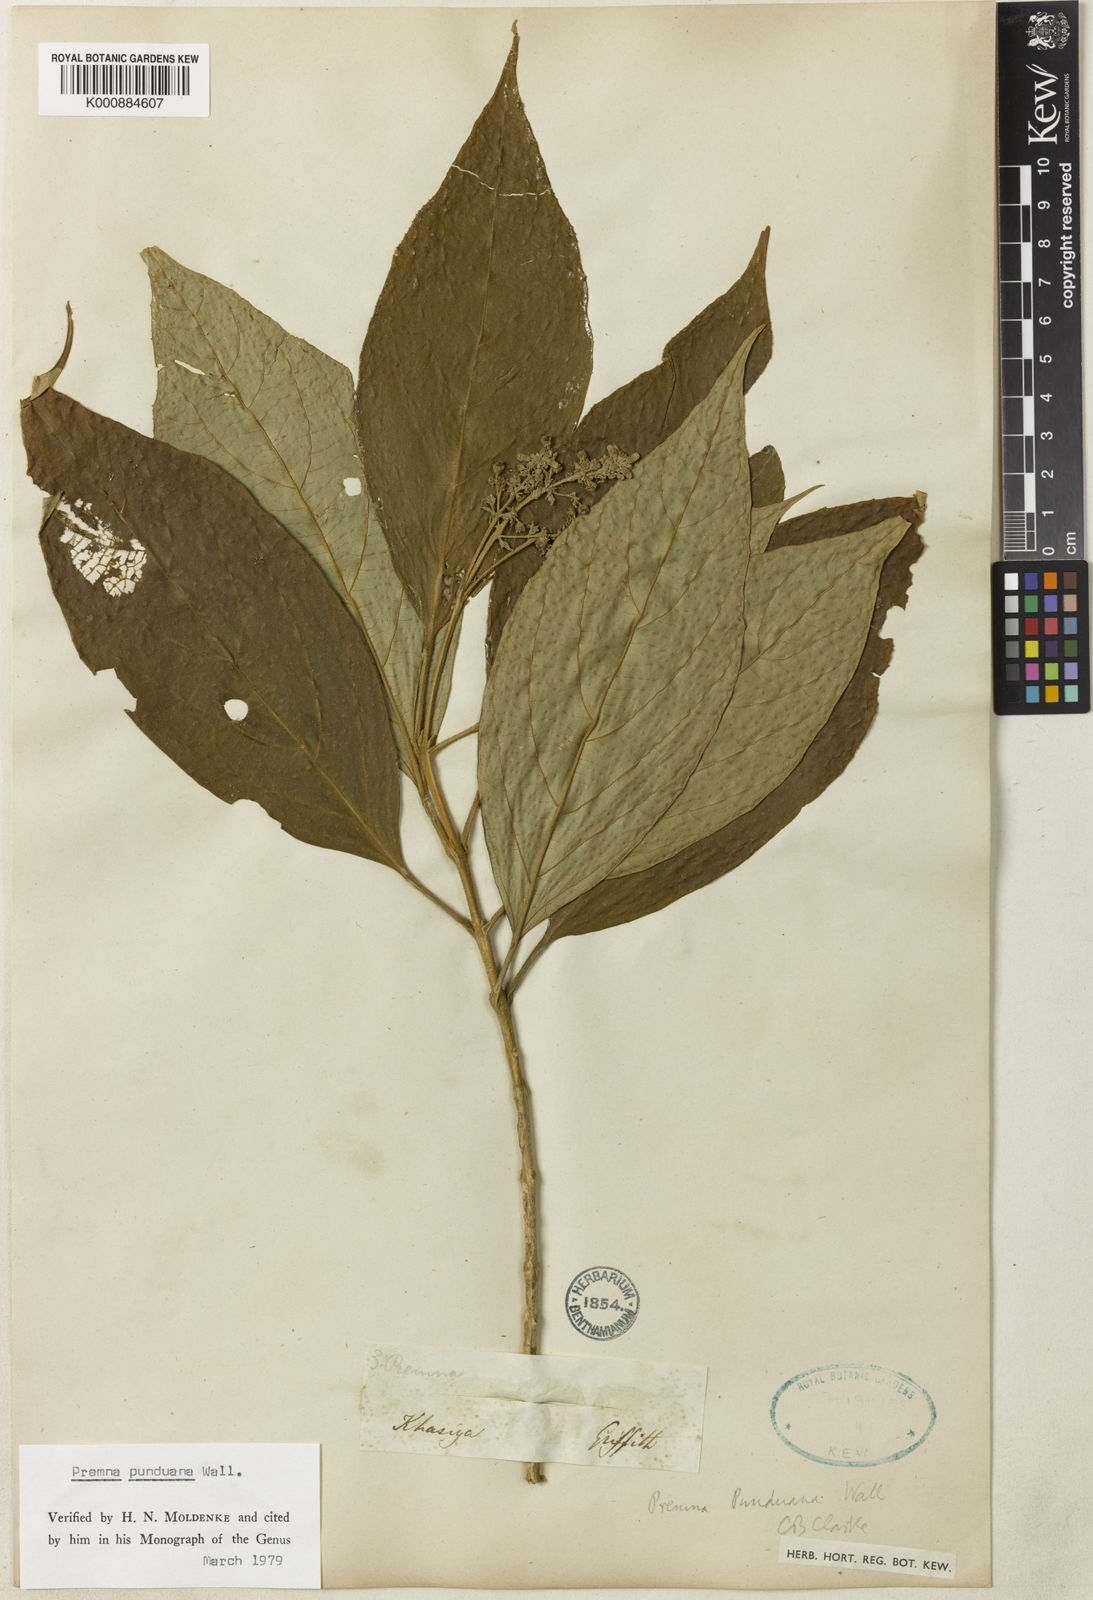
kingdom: Plantae
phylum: Tracheophyta
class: Magnoliopsida
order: Lamiales
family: Lamiaceae
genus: Premna
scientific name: Premna
